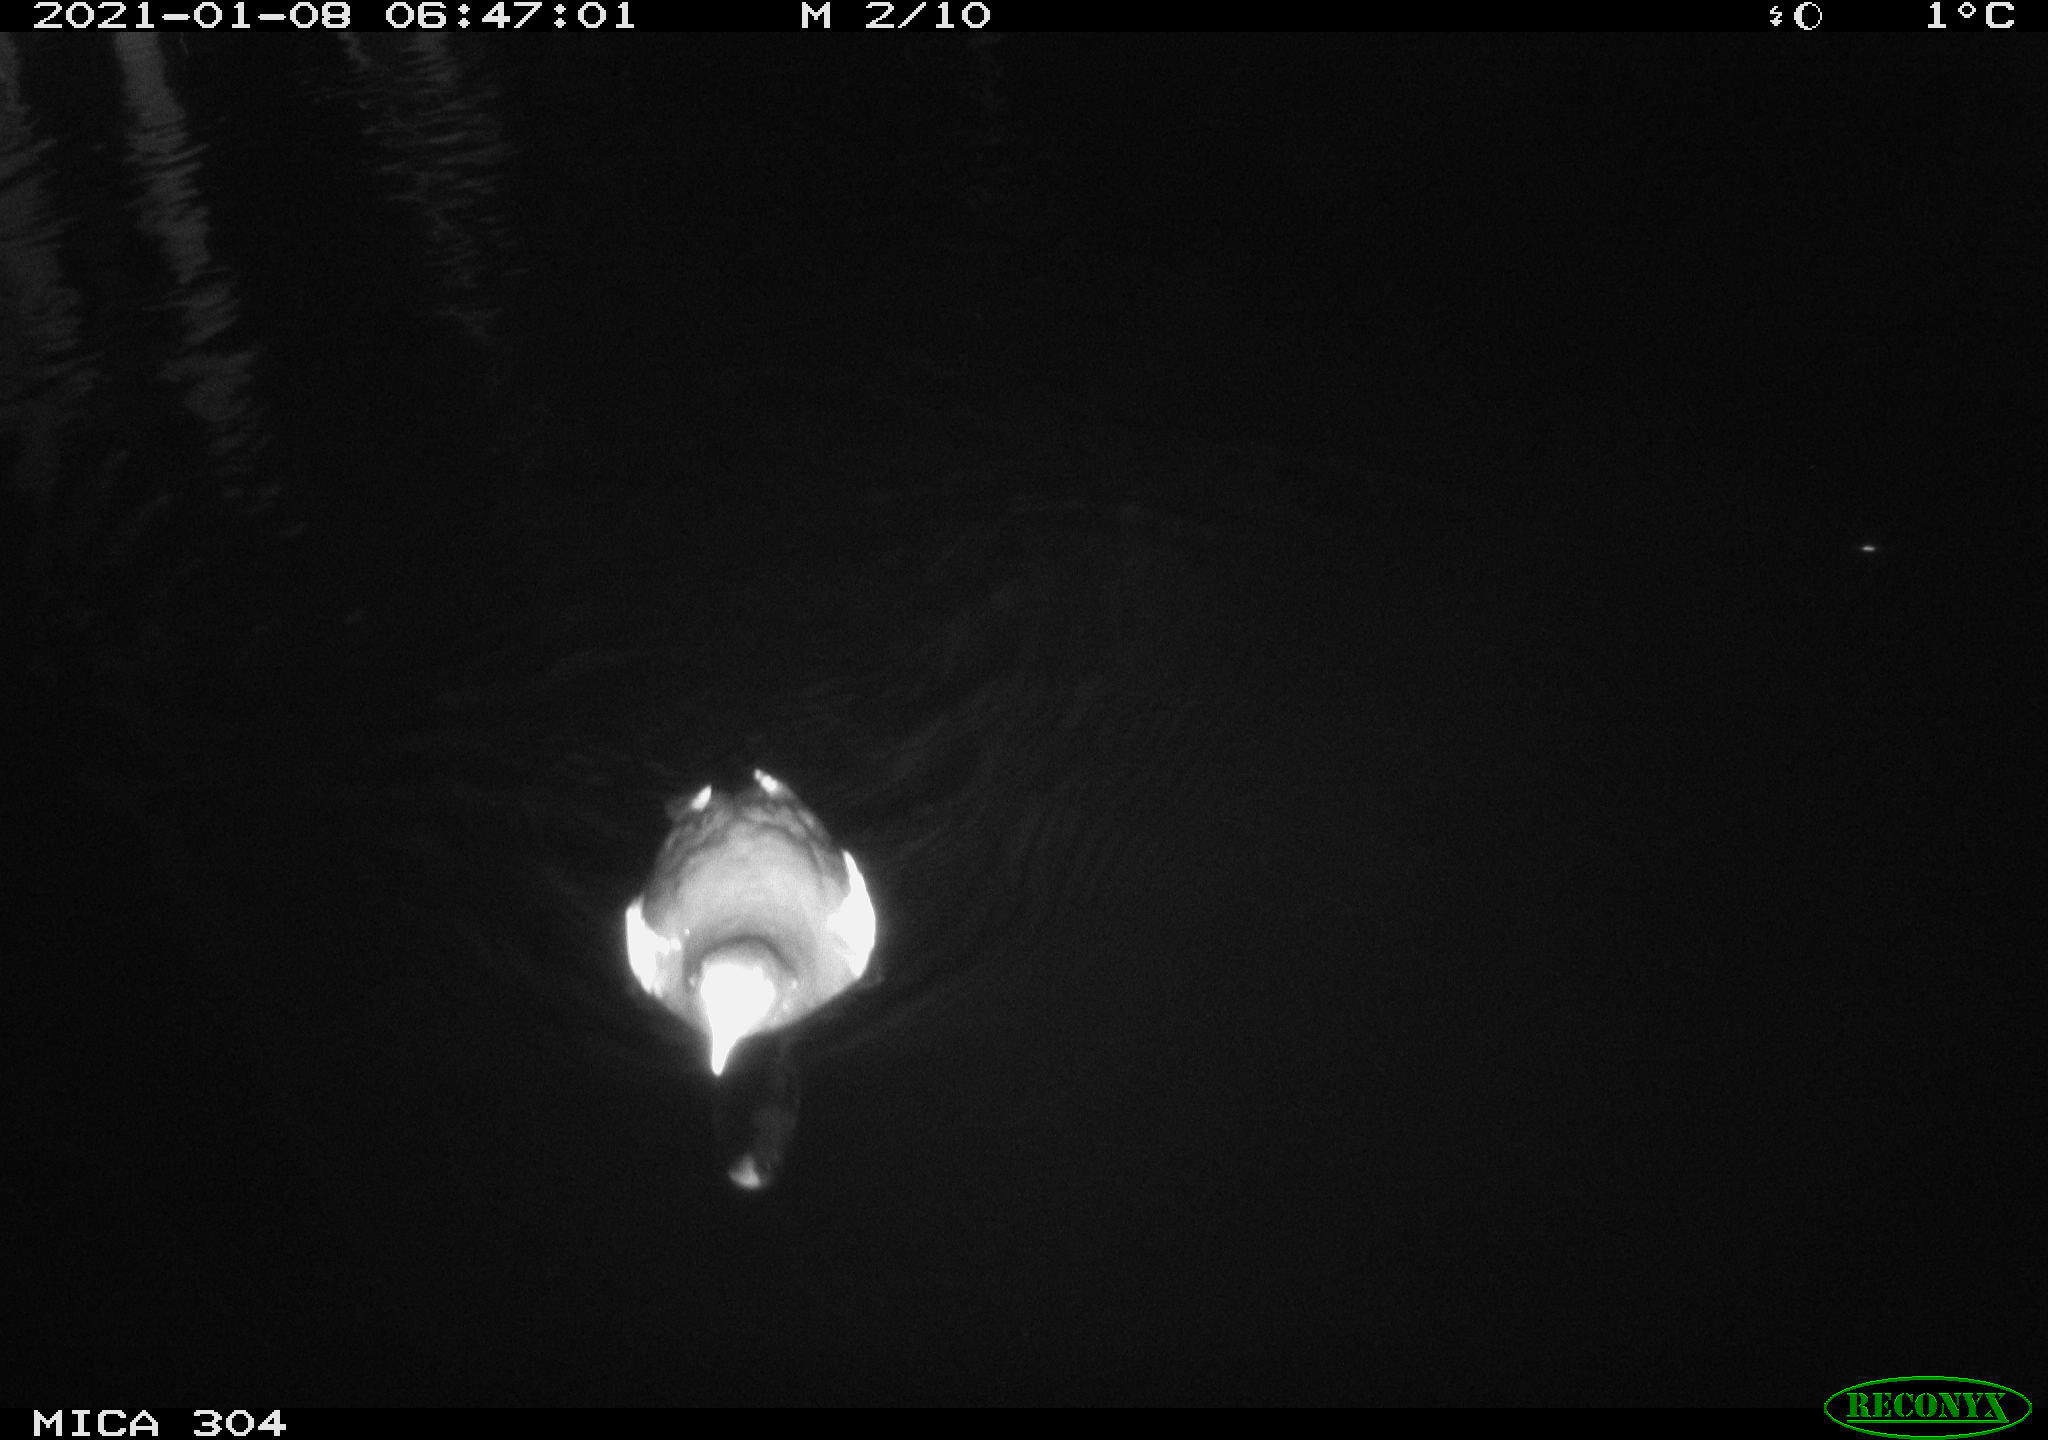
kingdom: Animalia
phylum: Chordata
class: Aves
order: Gruiformes
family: Rallidae
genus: Fulica
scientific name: Fulica atra
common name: Eurasian coot
